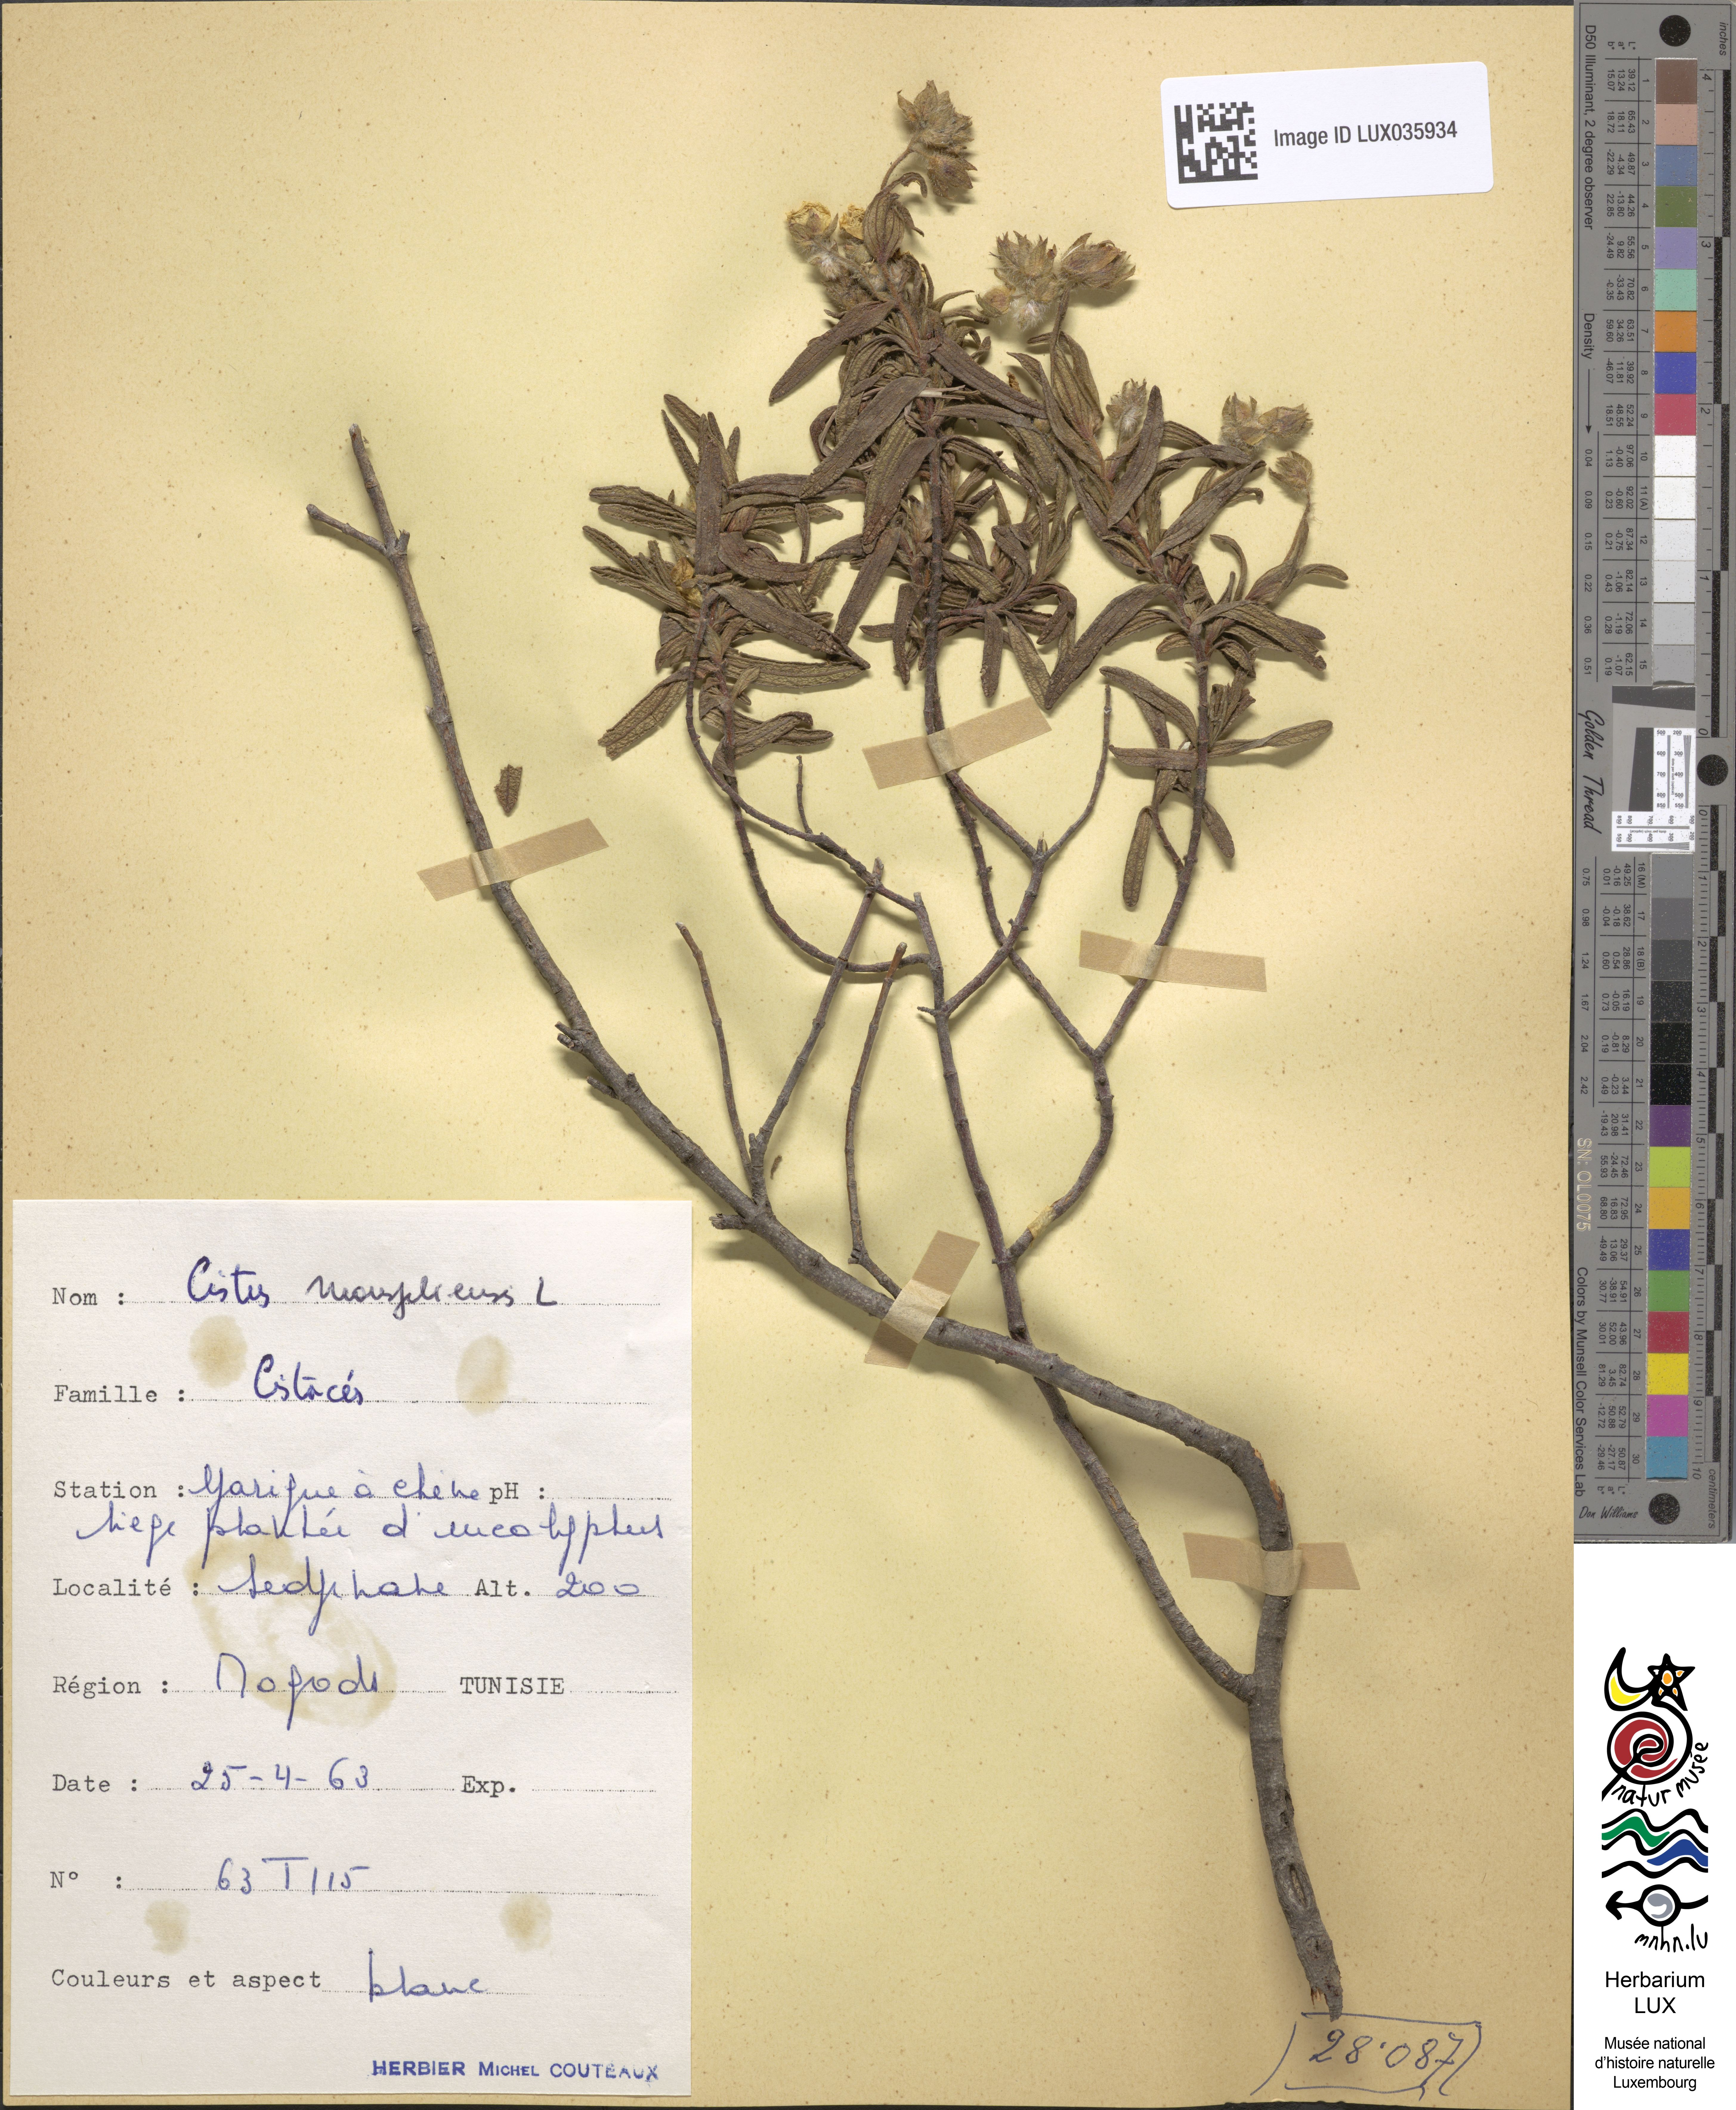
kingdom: Plantae
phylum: Tracheophyta
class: Magnoliopsida
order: Malvales
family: Cistaceae
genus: Cistus
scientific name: Cistus monspeliensis
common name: Montpelier cistus
